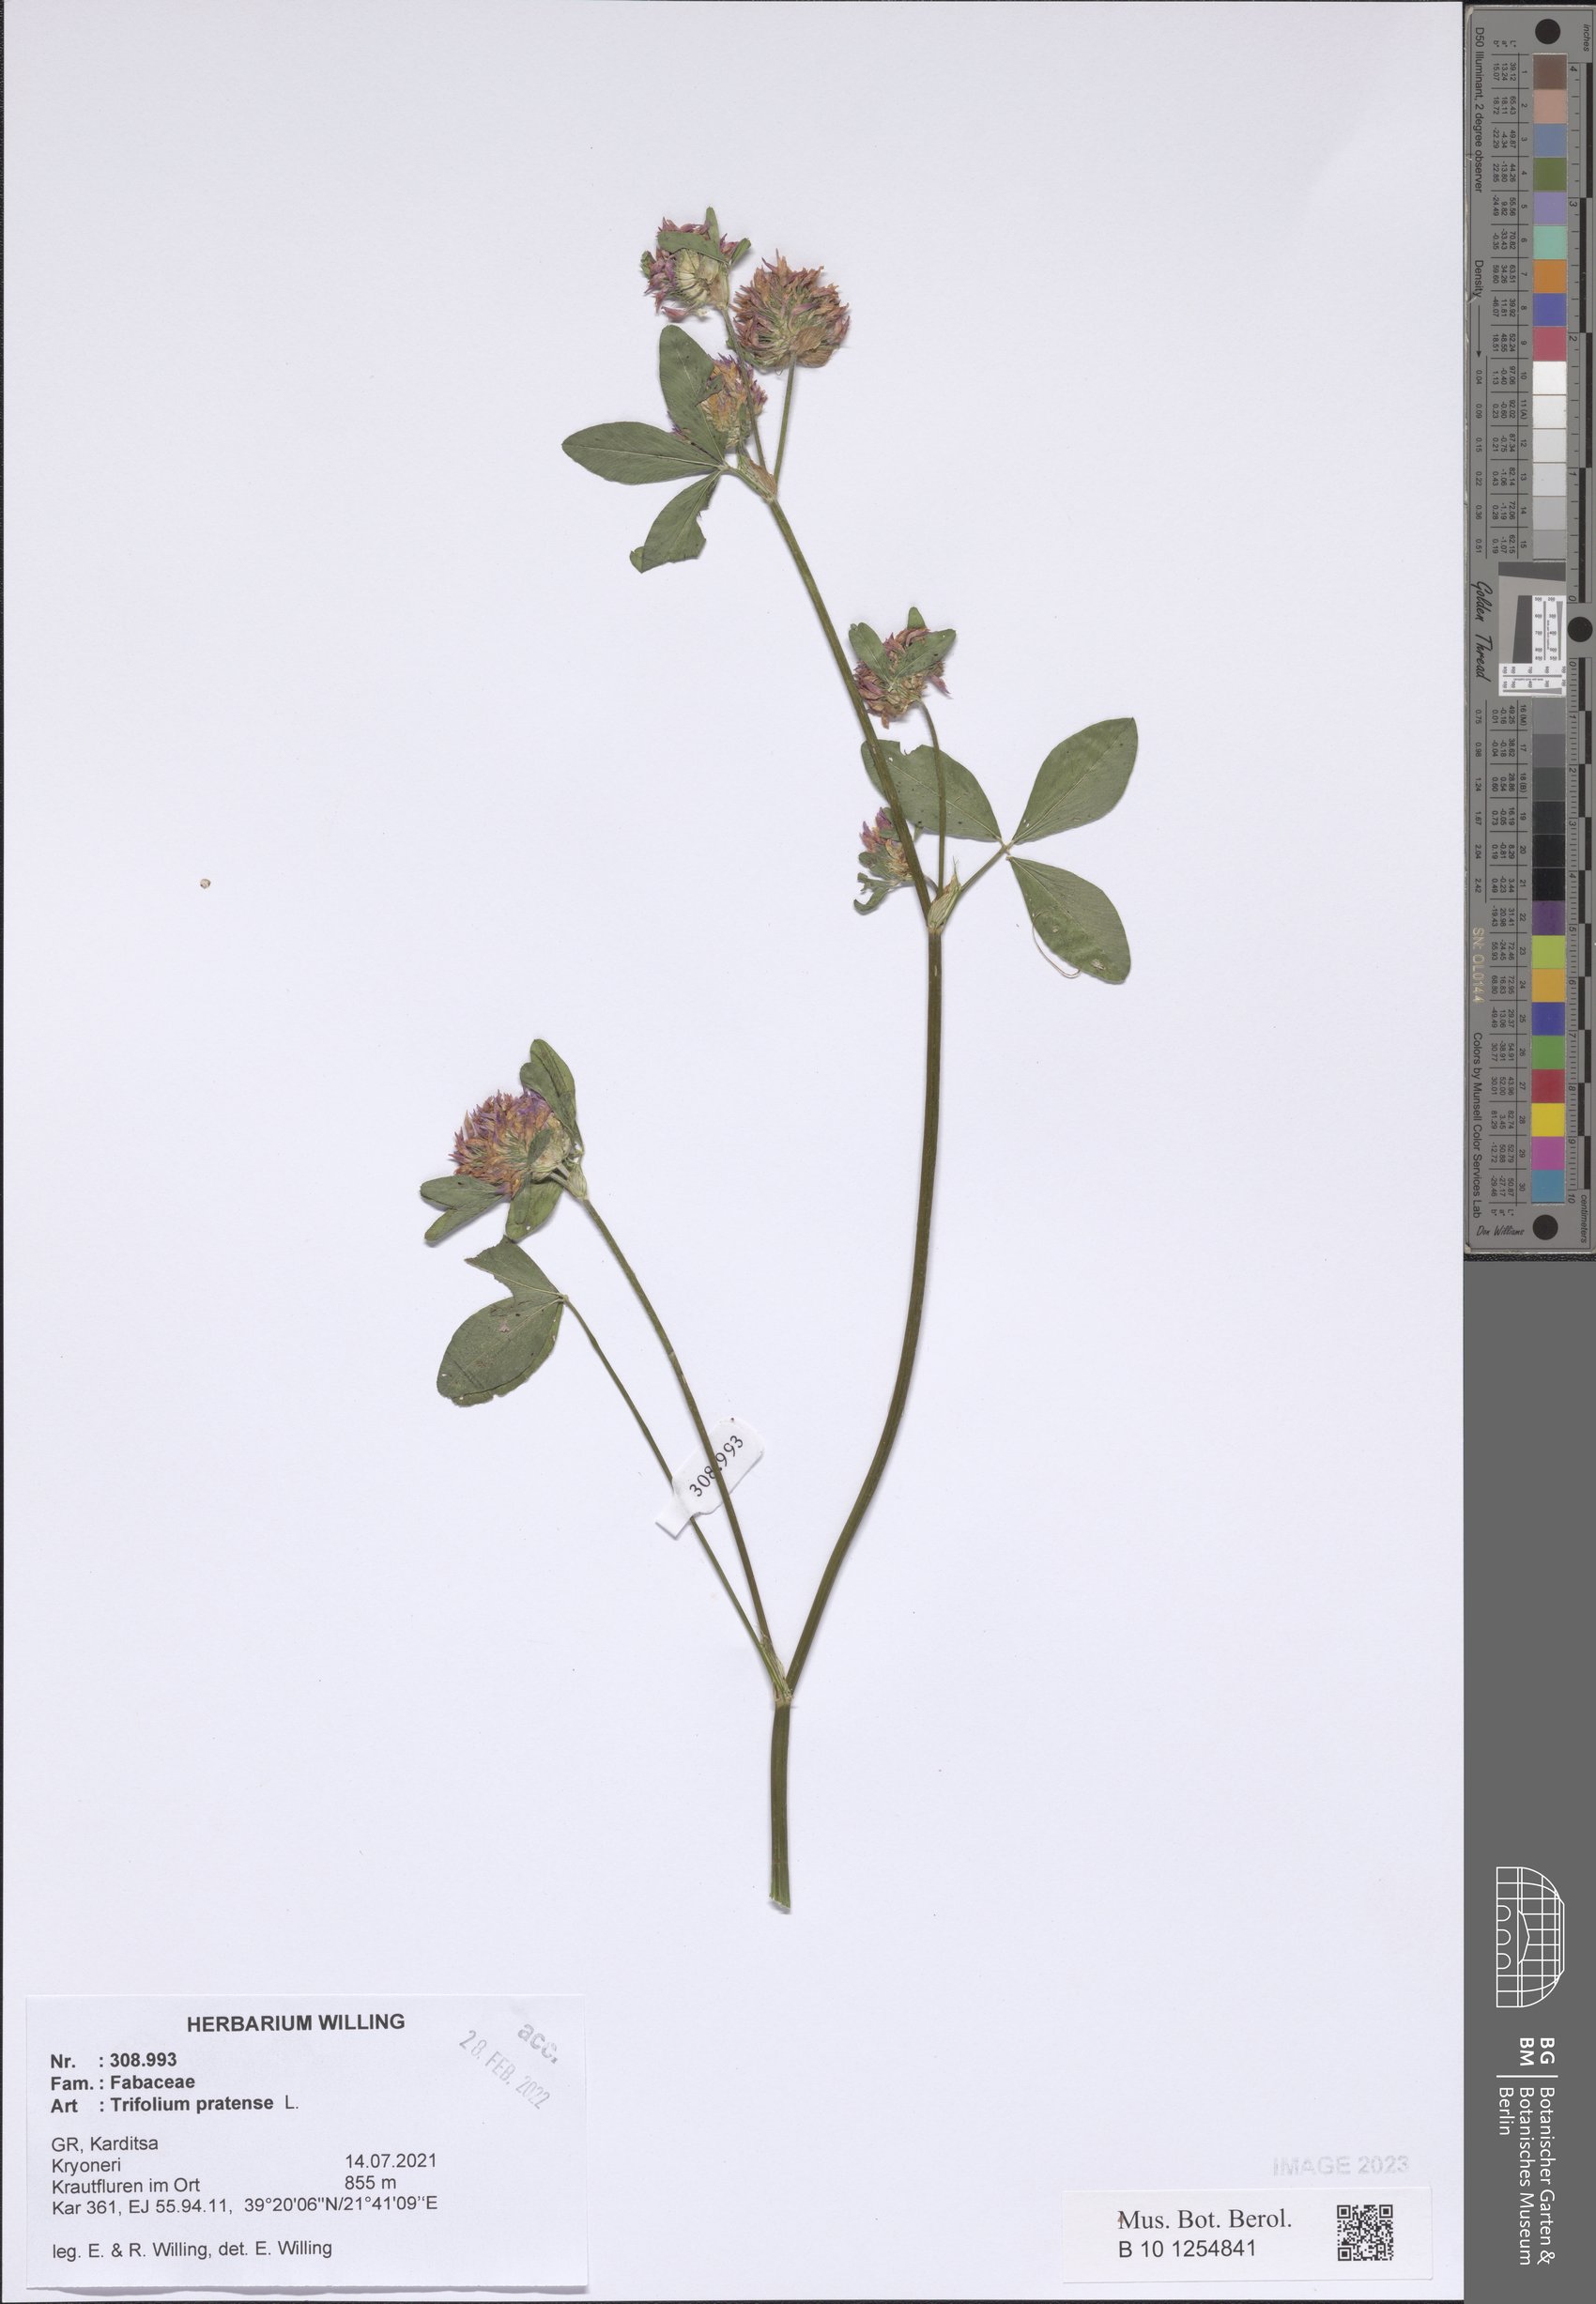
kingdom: Plantae
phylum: Tracheophyta
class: Magnoliopsida
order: Fabales
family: Fabaceae
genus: Trifolium
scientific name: Trifolium pratense
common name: Red clover
